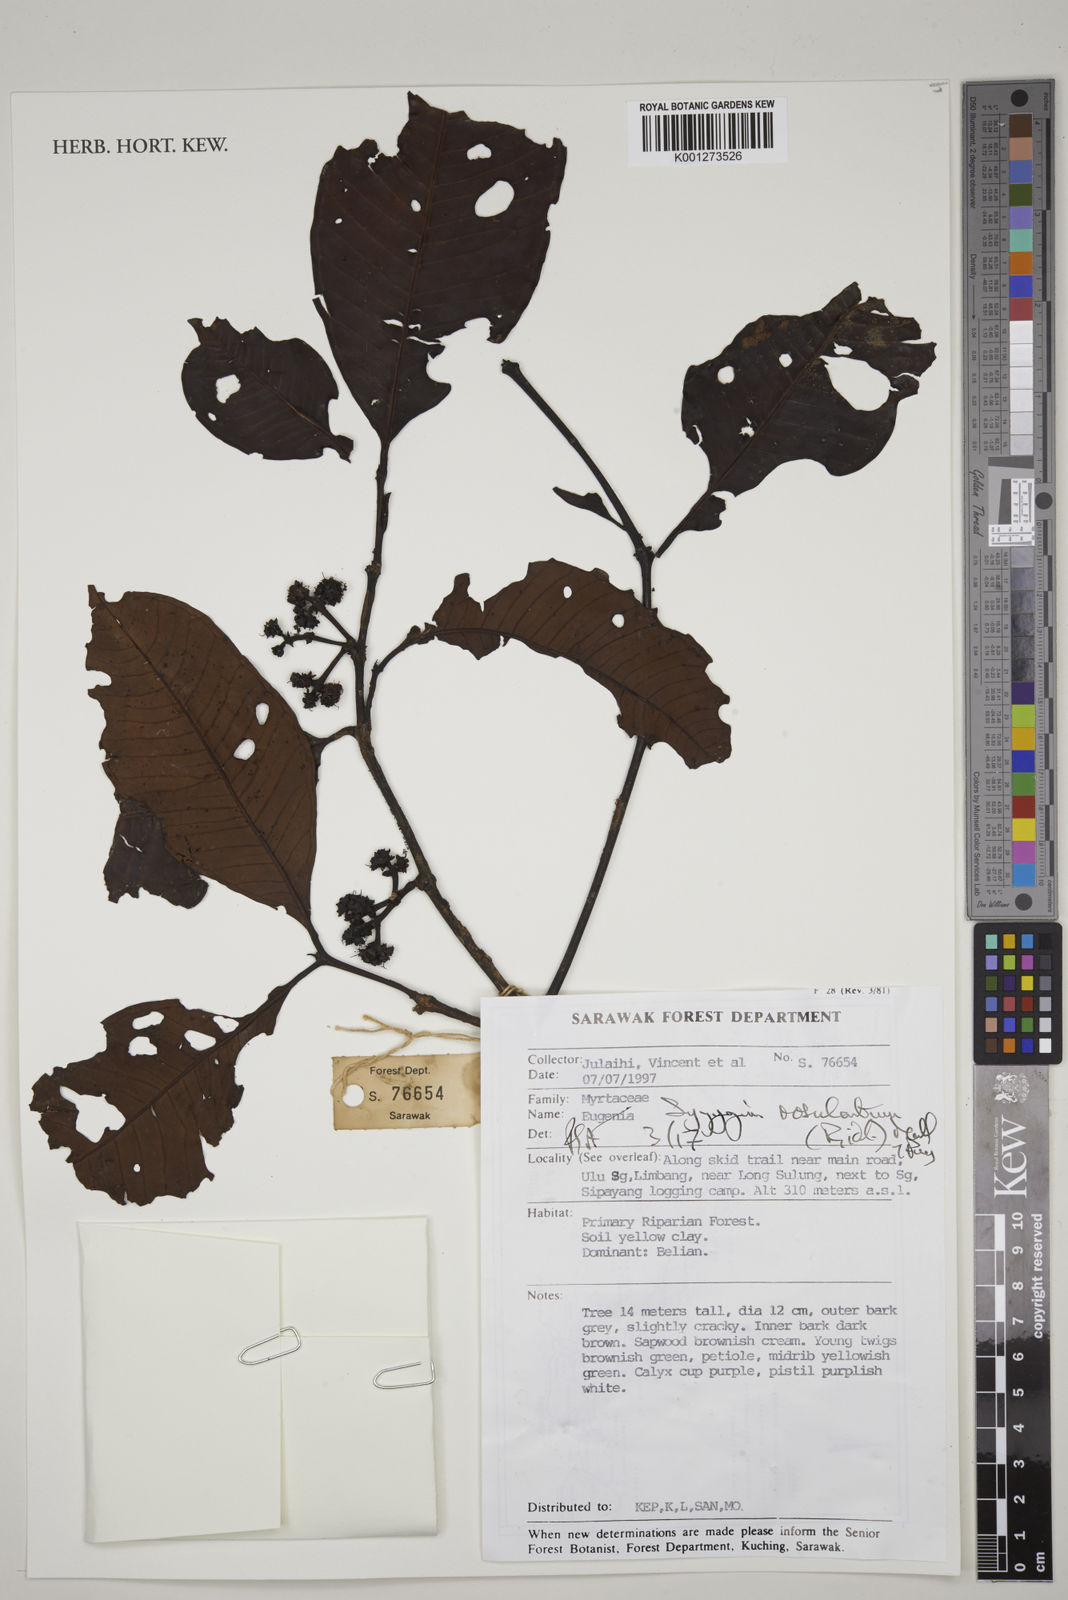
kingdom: Plantae
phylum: Tracheophyta
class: Magnoliopsida
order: Myrtales
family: Myrtaceae
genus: Syzygium
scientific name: Syzygium rosulentum
